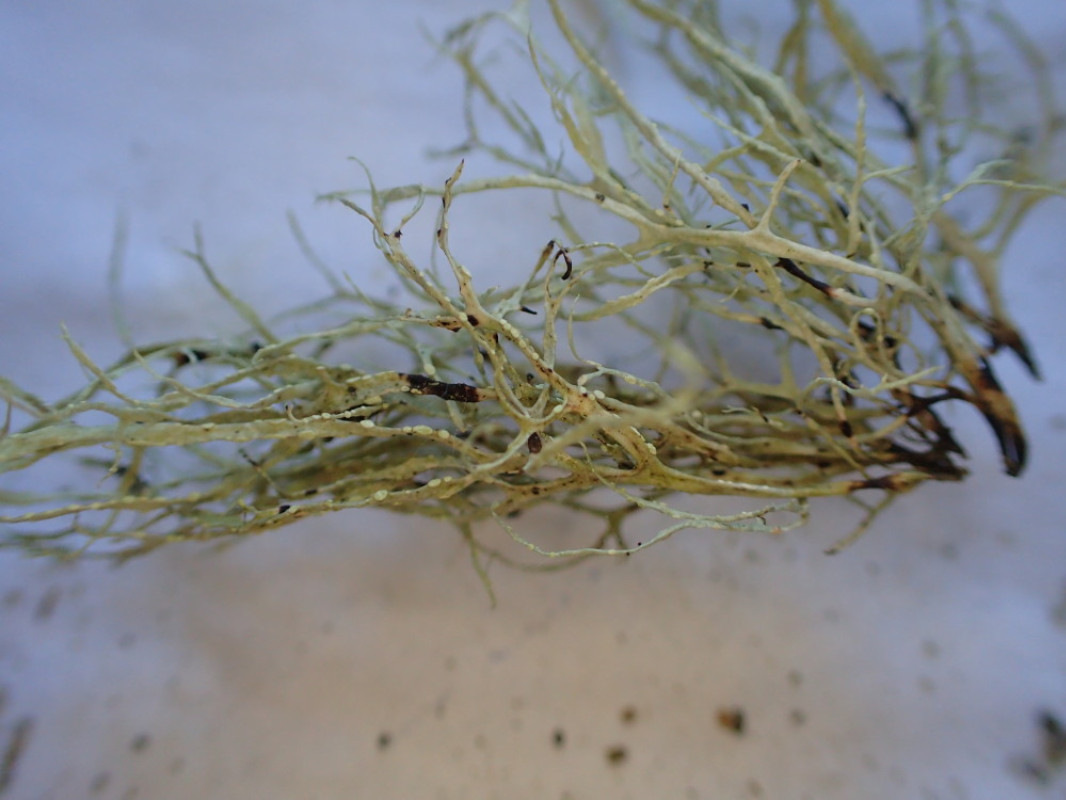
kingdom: Fungi
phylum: Ascomycota
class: Lecanoromycetes
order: Lecanorales
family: Ramalinaceae
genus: Ramalina
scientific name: Ramalina farinacea
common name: melet grenlav
